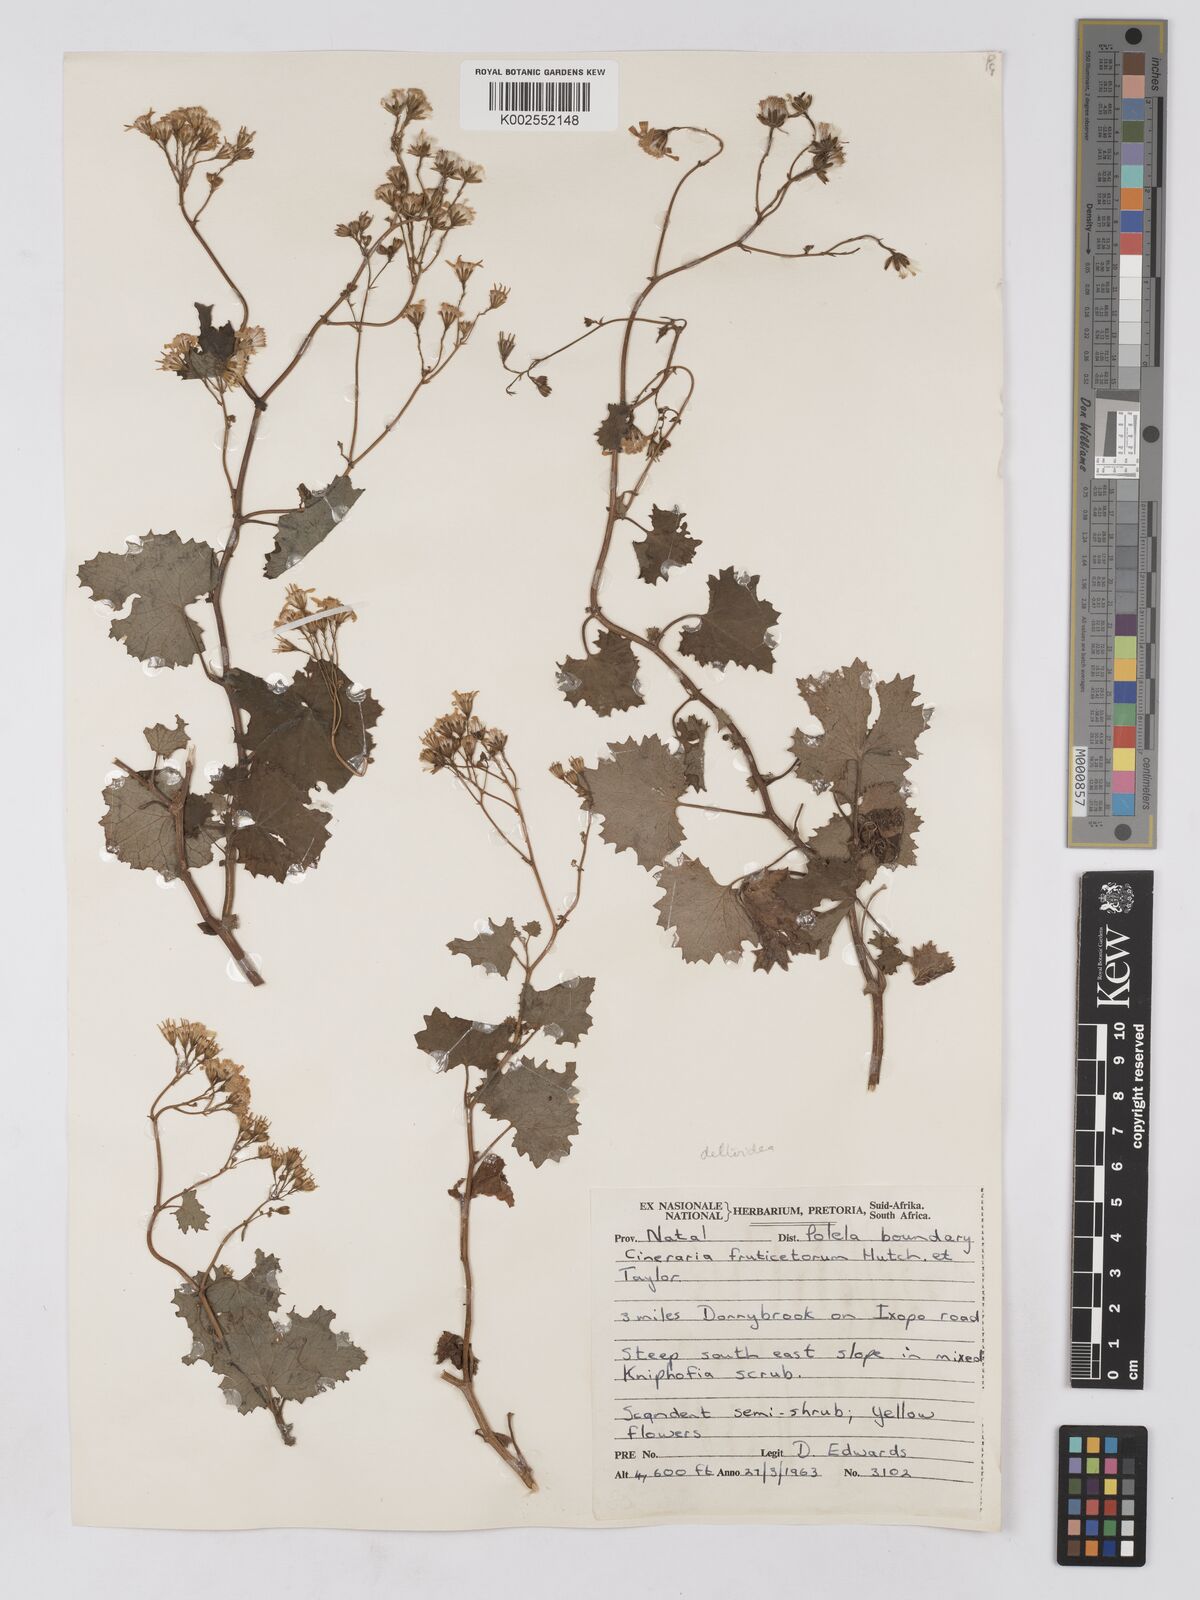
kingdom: Plantae
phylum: Tracheophyta
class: Magnoliopsida
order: Asterales
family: Asteraceae
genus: Cineraria
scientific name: Cineraria deltoidea
